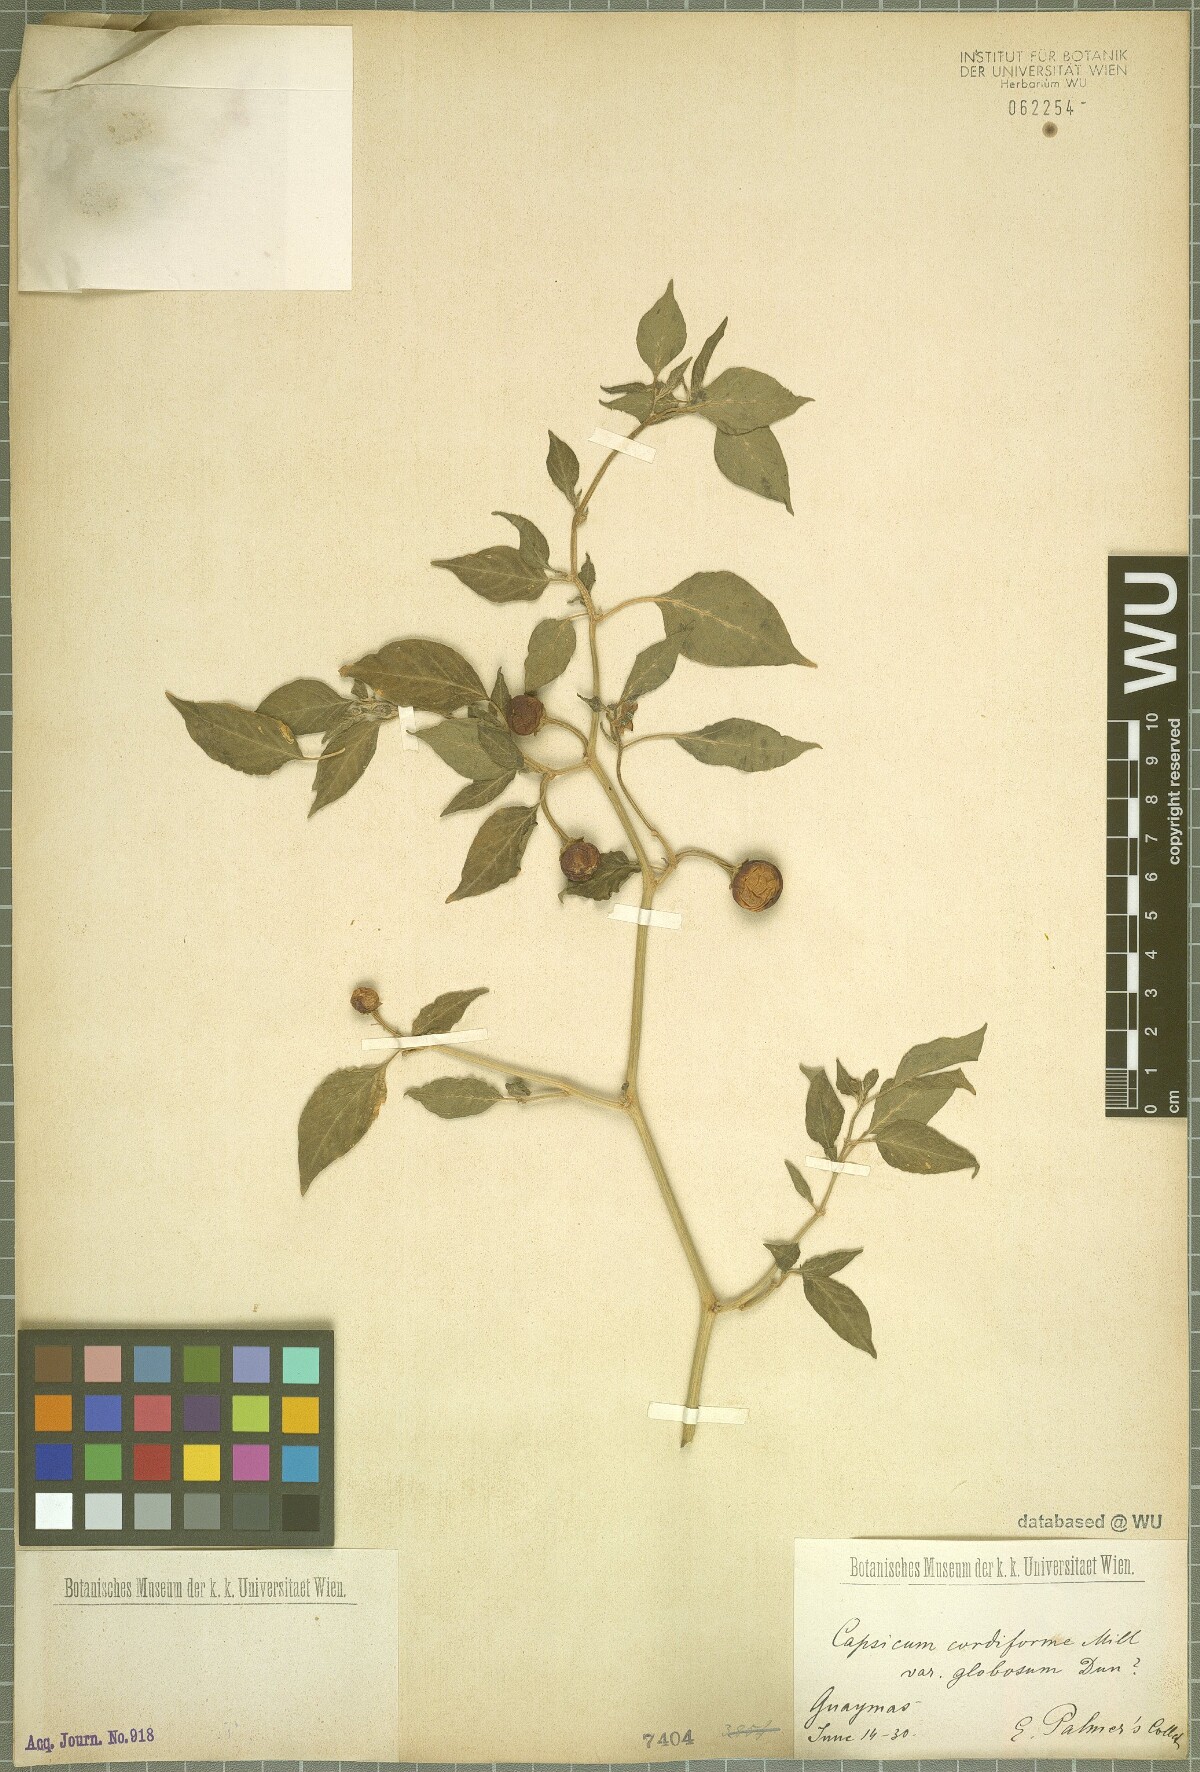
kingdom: Plantae
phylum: Tracheophyta
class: Magnoliopsida
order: Solanales
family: Solanaceae
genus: Capsicum
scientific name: Capsicum annuum
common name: Sweet pepper
